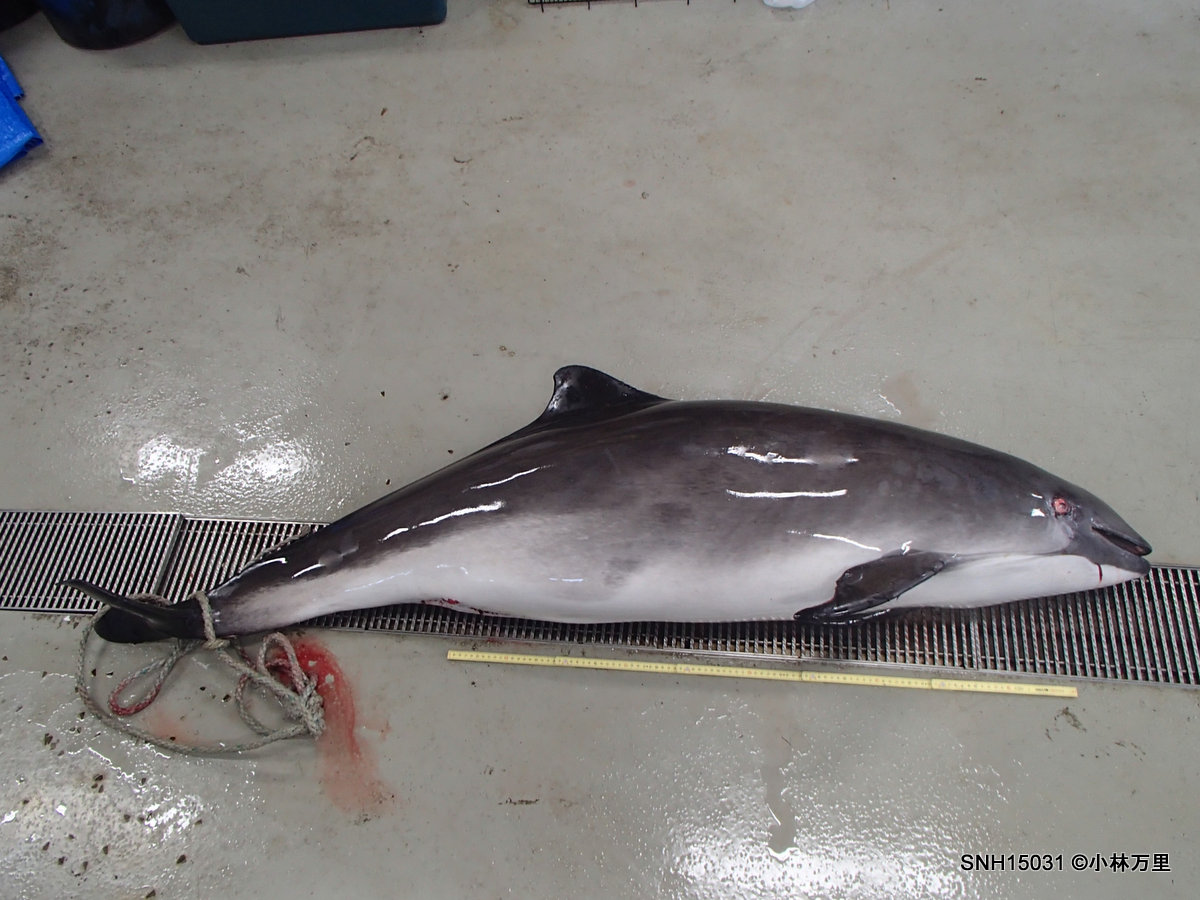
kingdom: Animalia
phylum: Chordata
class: Mammalia
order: Cetacea
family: Phocoenidae
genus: Phocoena
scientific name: Phocoena phocoena
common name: Harbour porpoise
